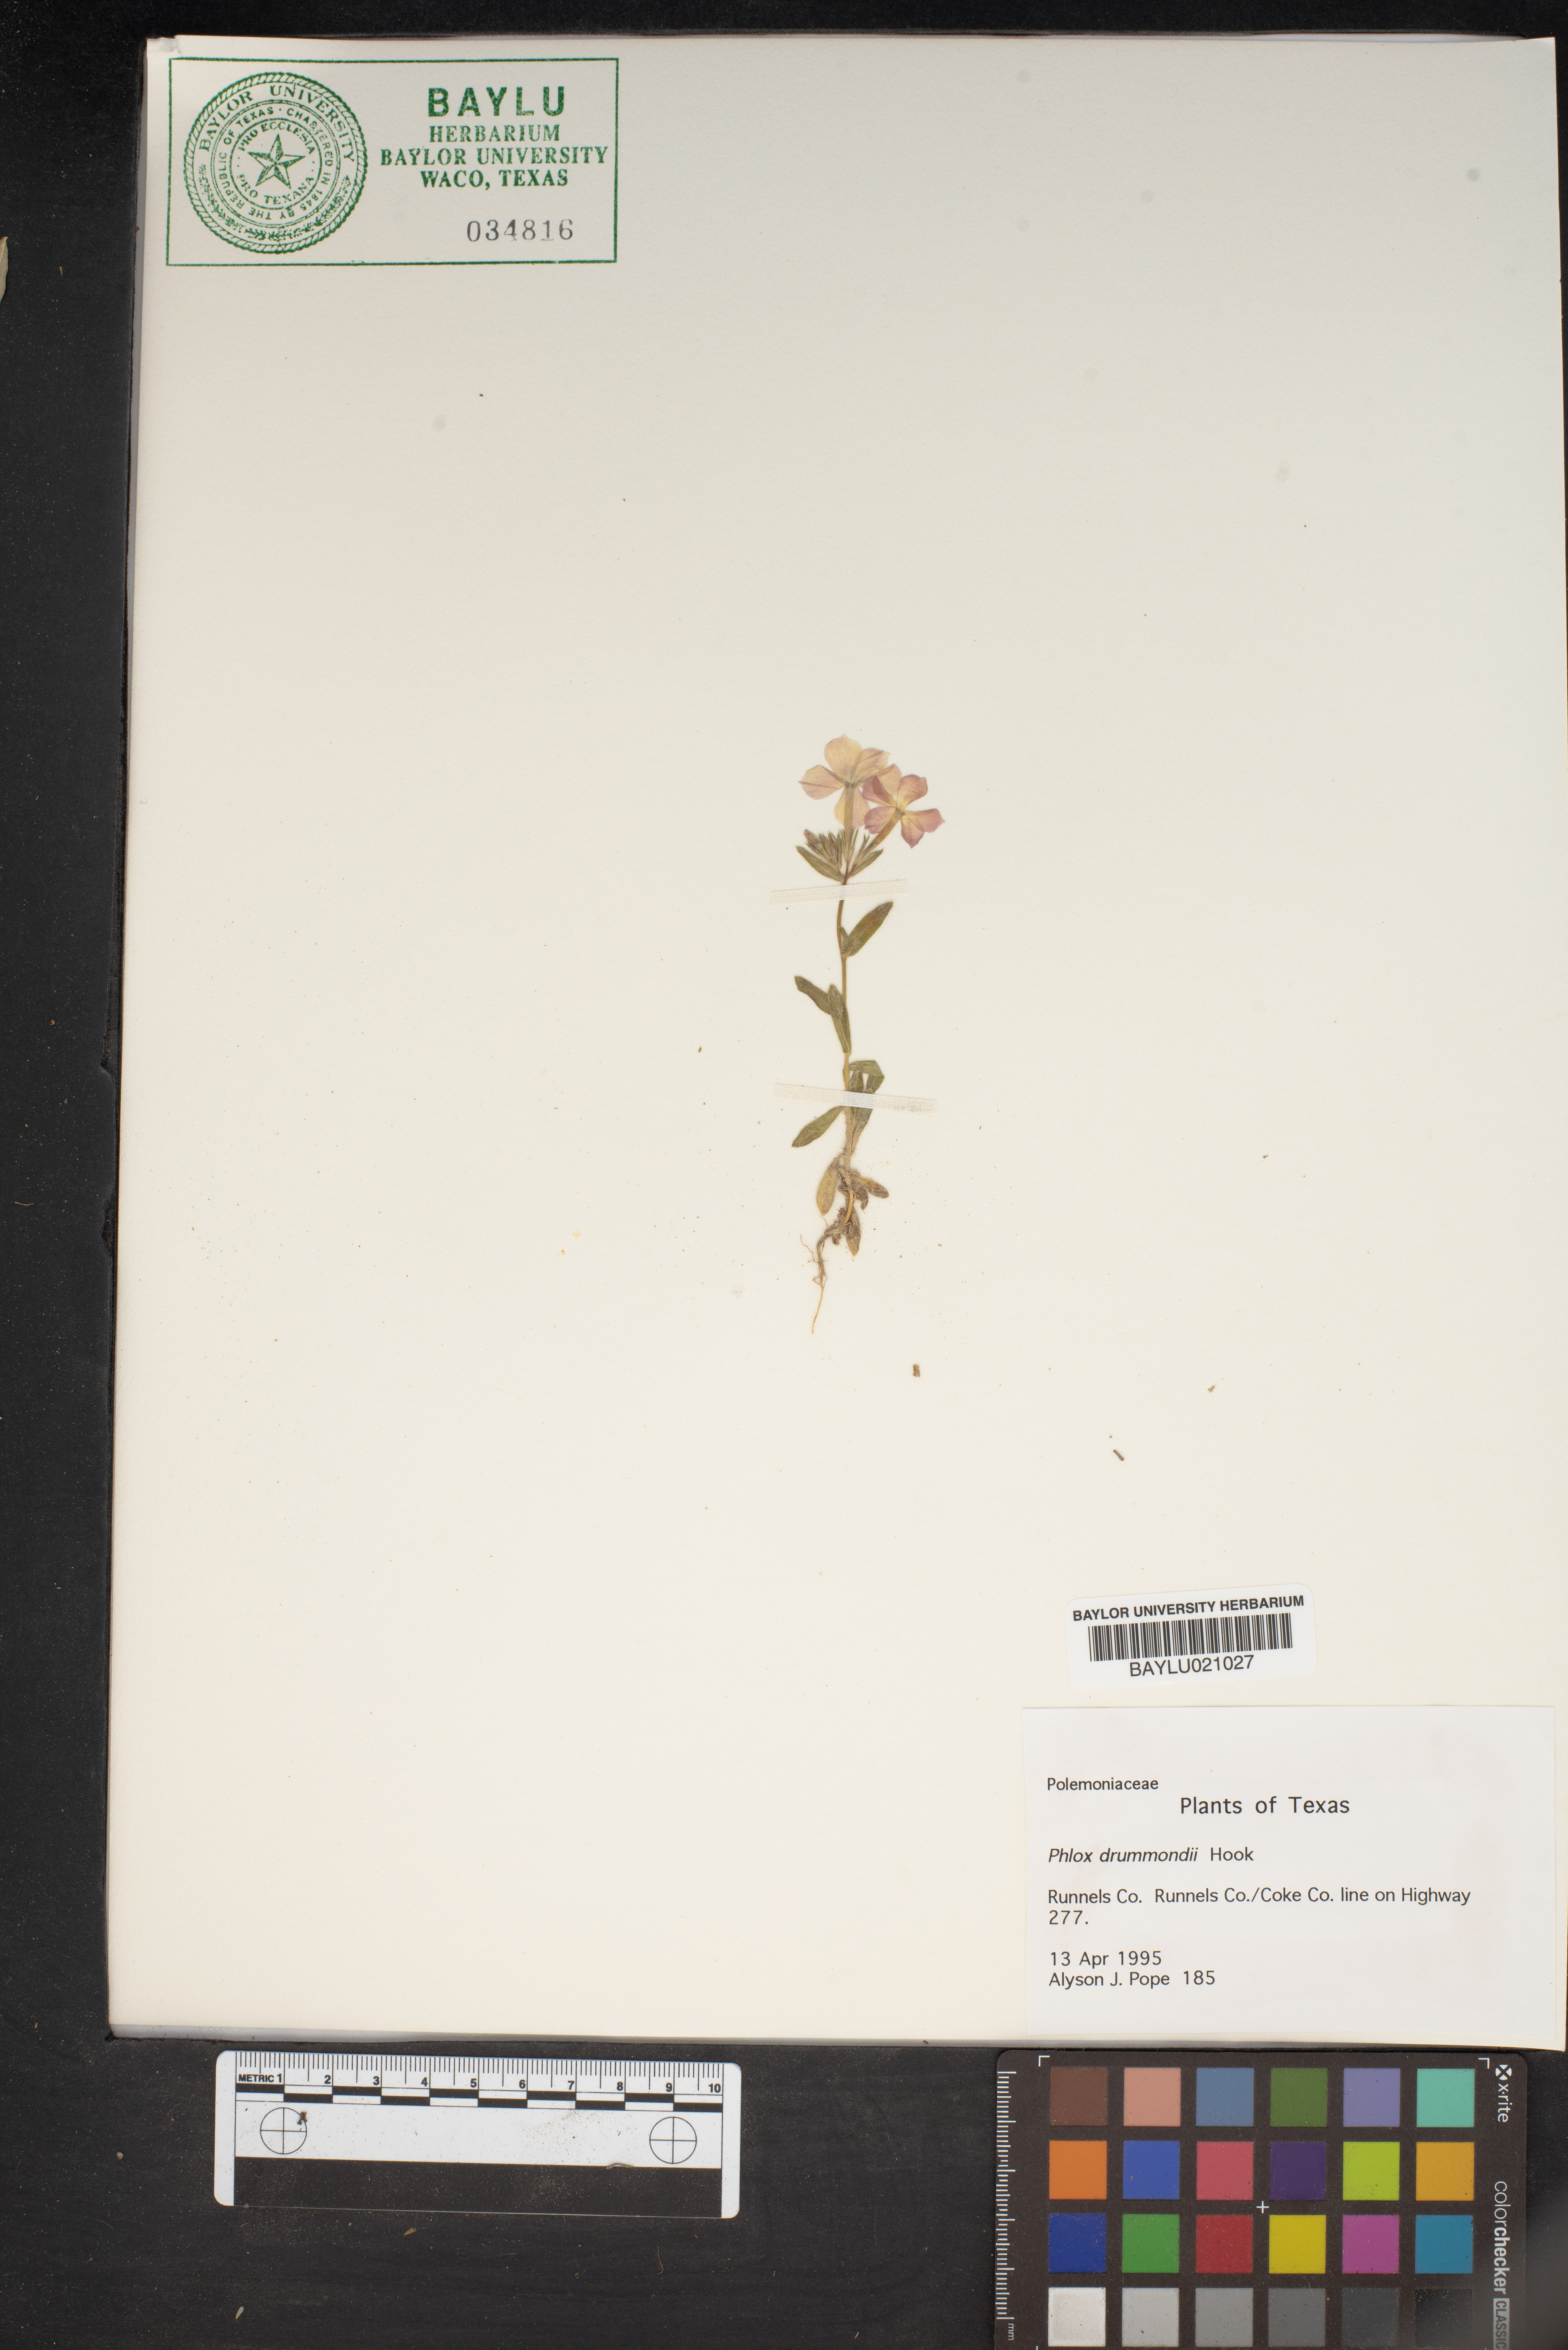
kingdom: Plantae
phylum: Tracheophyta
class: Magnoliopsida
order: Ericales
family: Polemoniaceae
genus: Phlox
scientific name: Phlox drummondii
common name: Drummond's phlox
